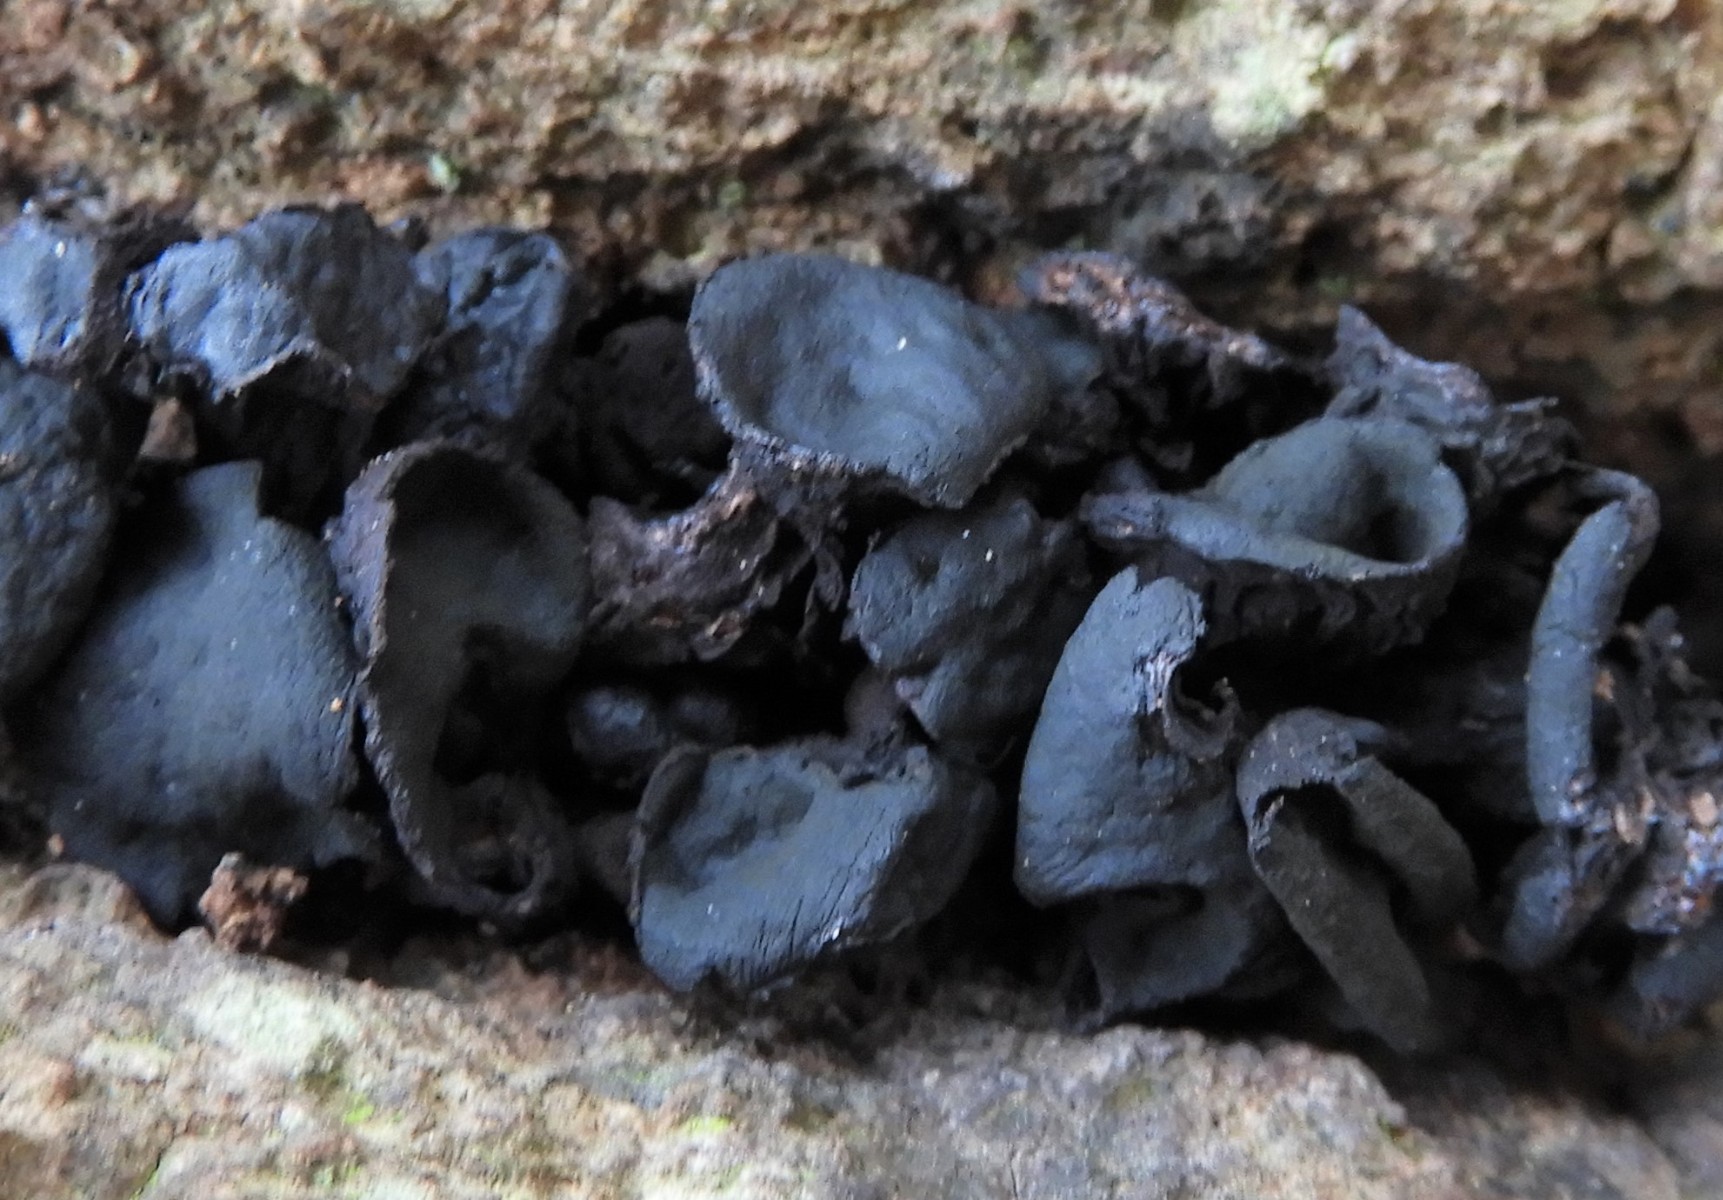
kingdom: Fungi
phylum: Ascomycota
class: Leotiomycetes
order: Phacidiales
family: Phacidiaceae
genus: Bulgaria
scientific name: Bulgaria inquinans
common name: afsmittende topsvamp
